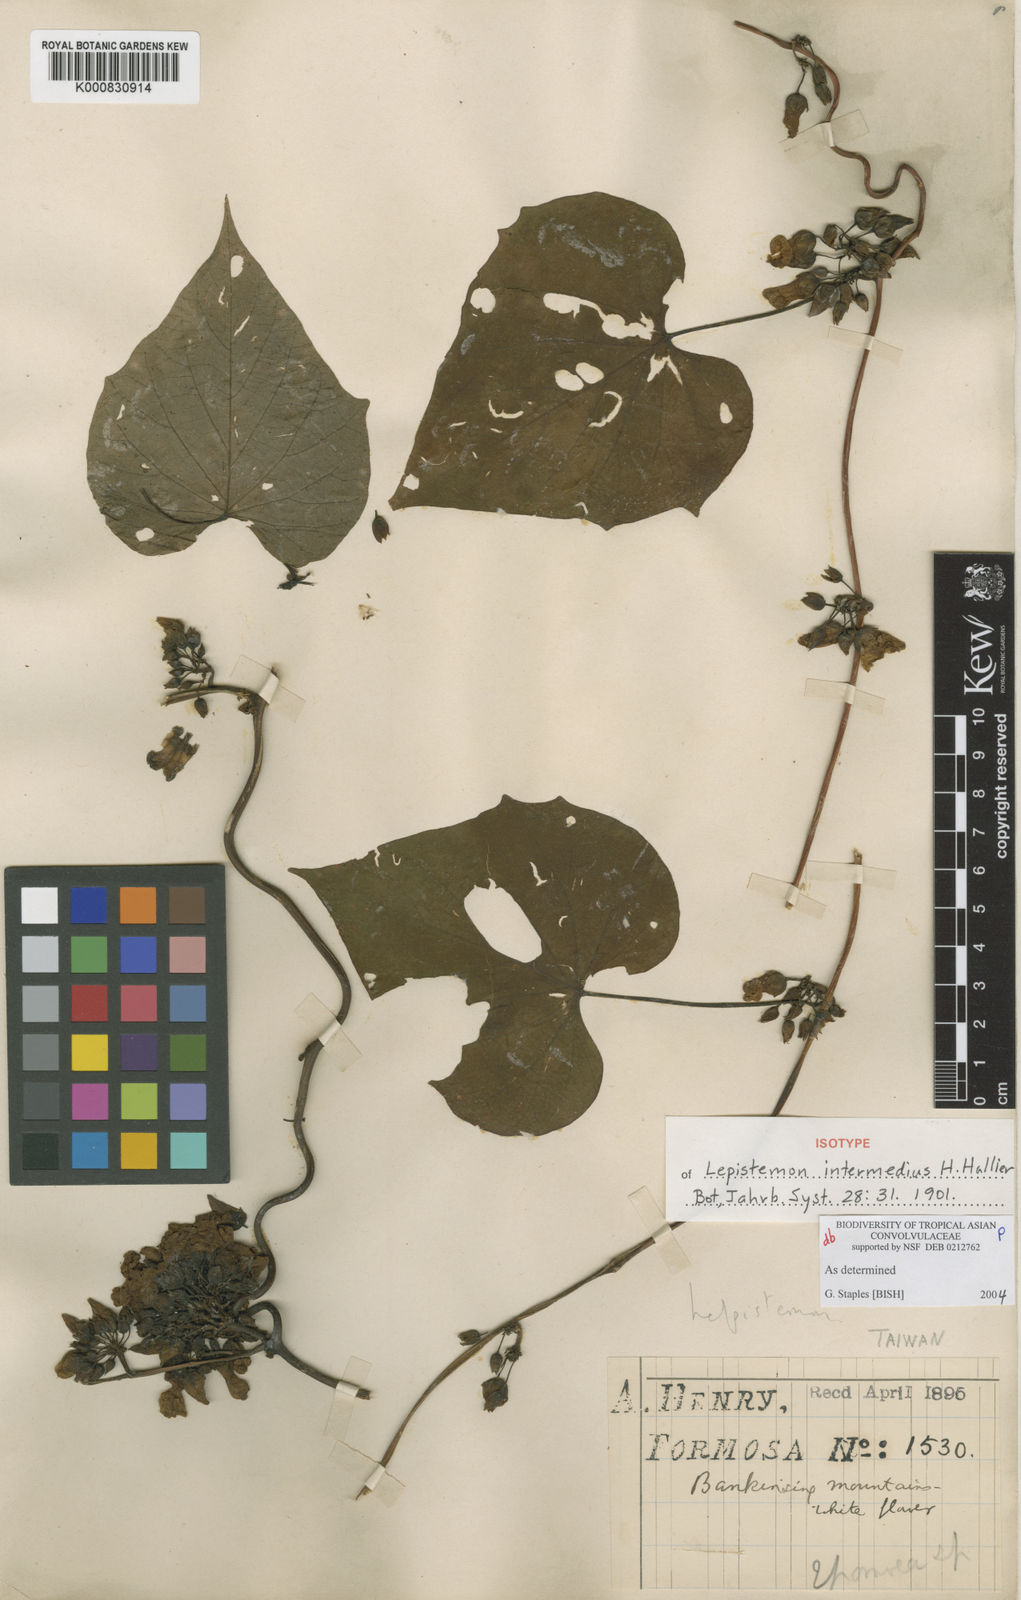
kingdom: Plantae
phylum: Tracheophyta
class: Magnoliopsida
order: Solanales
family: Convolvulaceae
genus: Lepistemon
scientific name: Lepistemon intermedius
